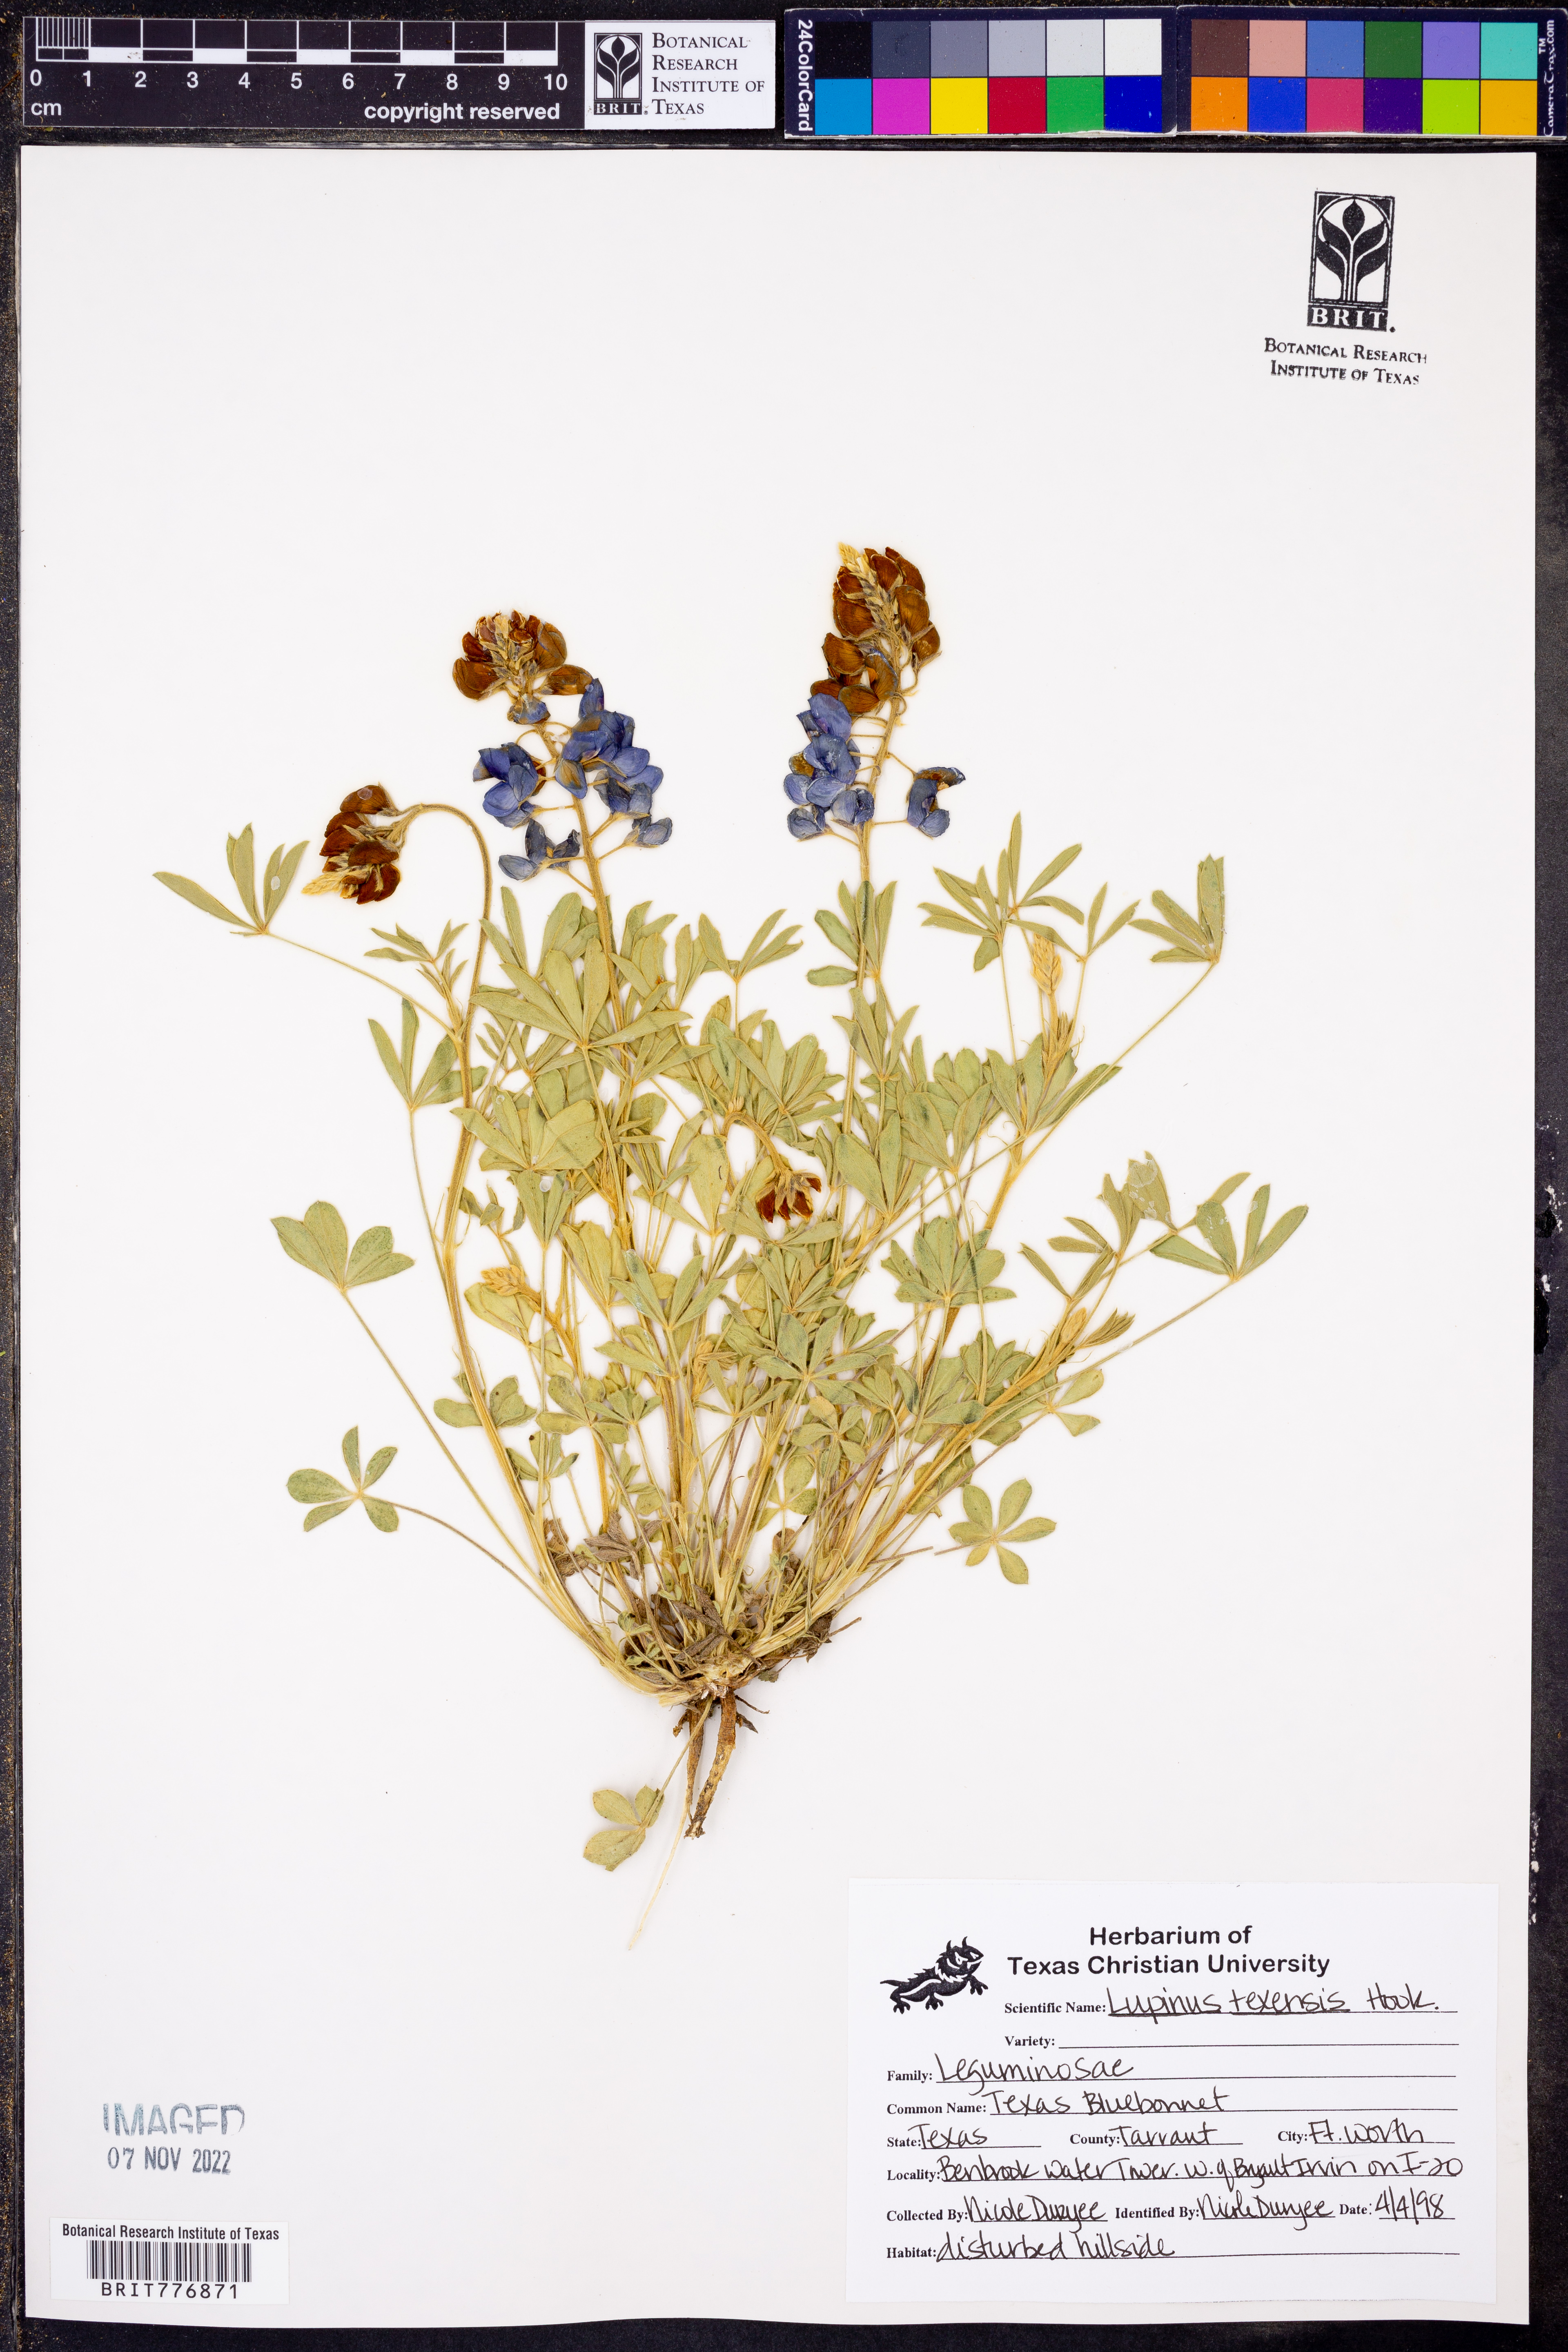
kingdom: Plantae
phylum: Tracheophyta
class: Magnoliopsida
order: Fabales
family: Fabaceae
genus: Lupinus
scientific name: Lupinus texensis
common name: Texas bluebonnet
